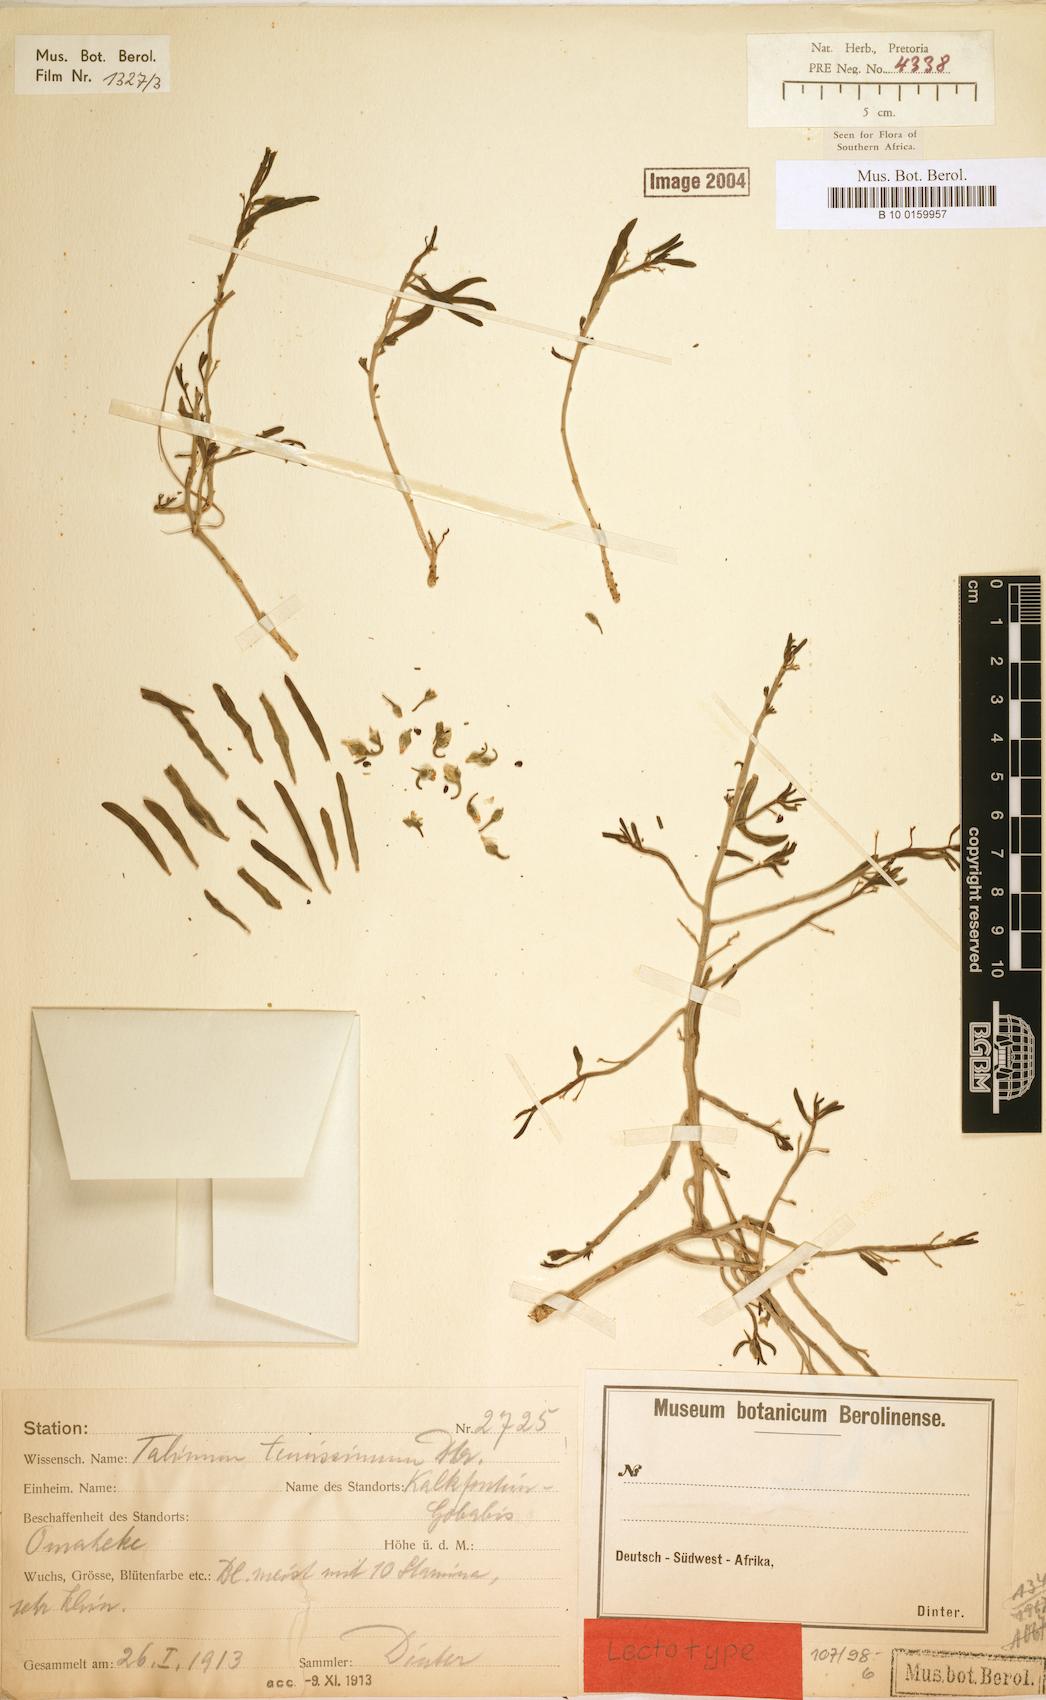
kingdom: Plantae
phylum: Tracheophyta
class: Magnoliopsida
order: Caryophyllales
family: Talinaceae
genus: Talinum
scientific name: Talinum tenuissimum
